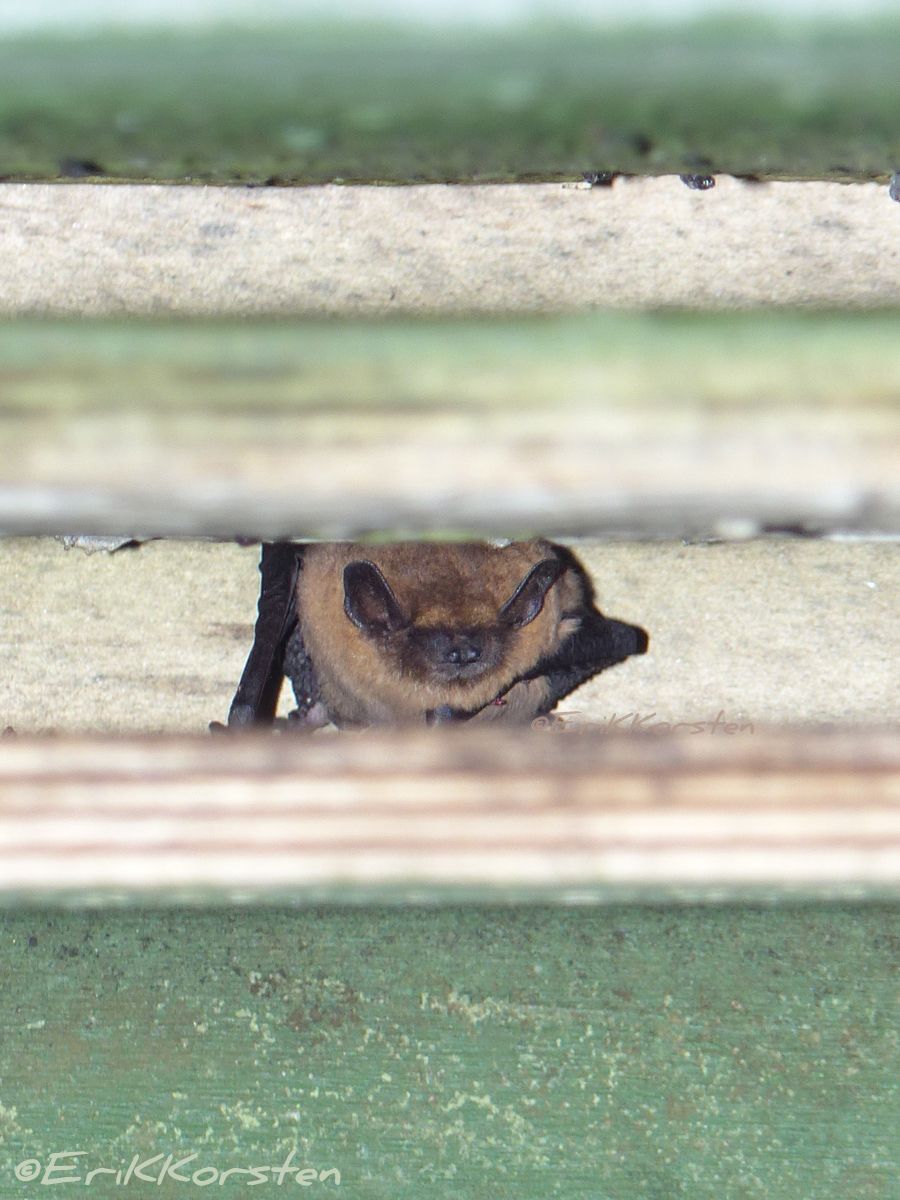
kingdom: Animalia
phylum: Chordata
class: Mammalia
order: Chiroptera
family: Vespertilionidae
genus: Pipistrellus
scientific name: Pipistrellus pipistrellus
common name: Common pipistrelle
